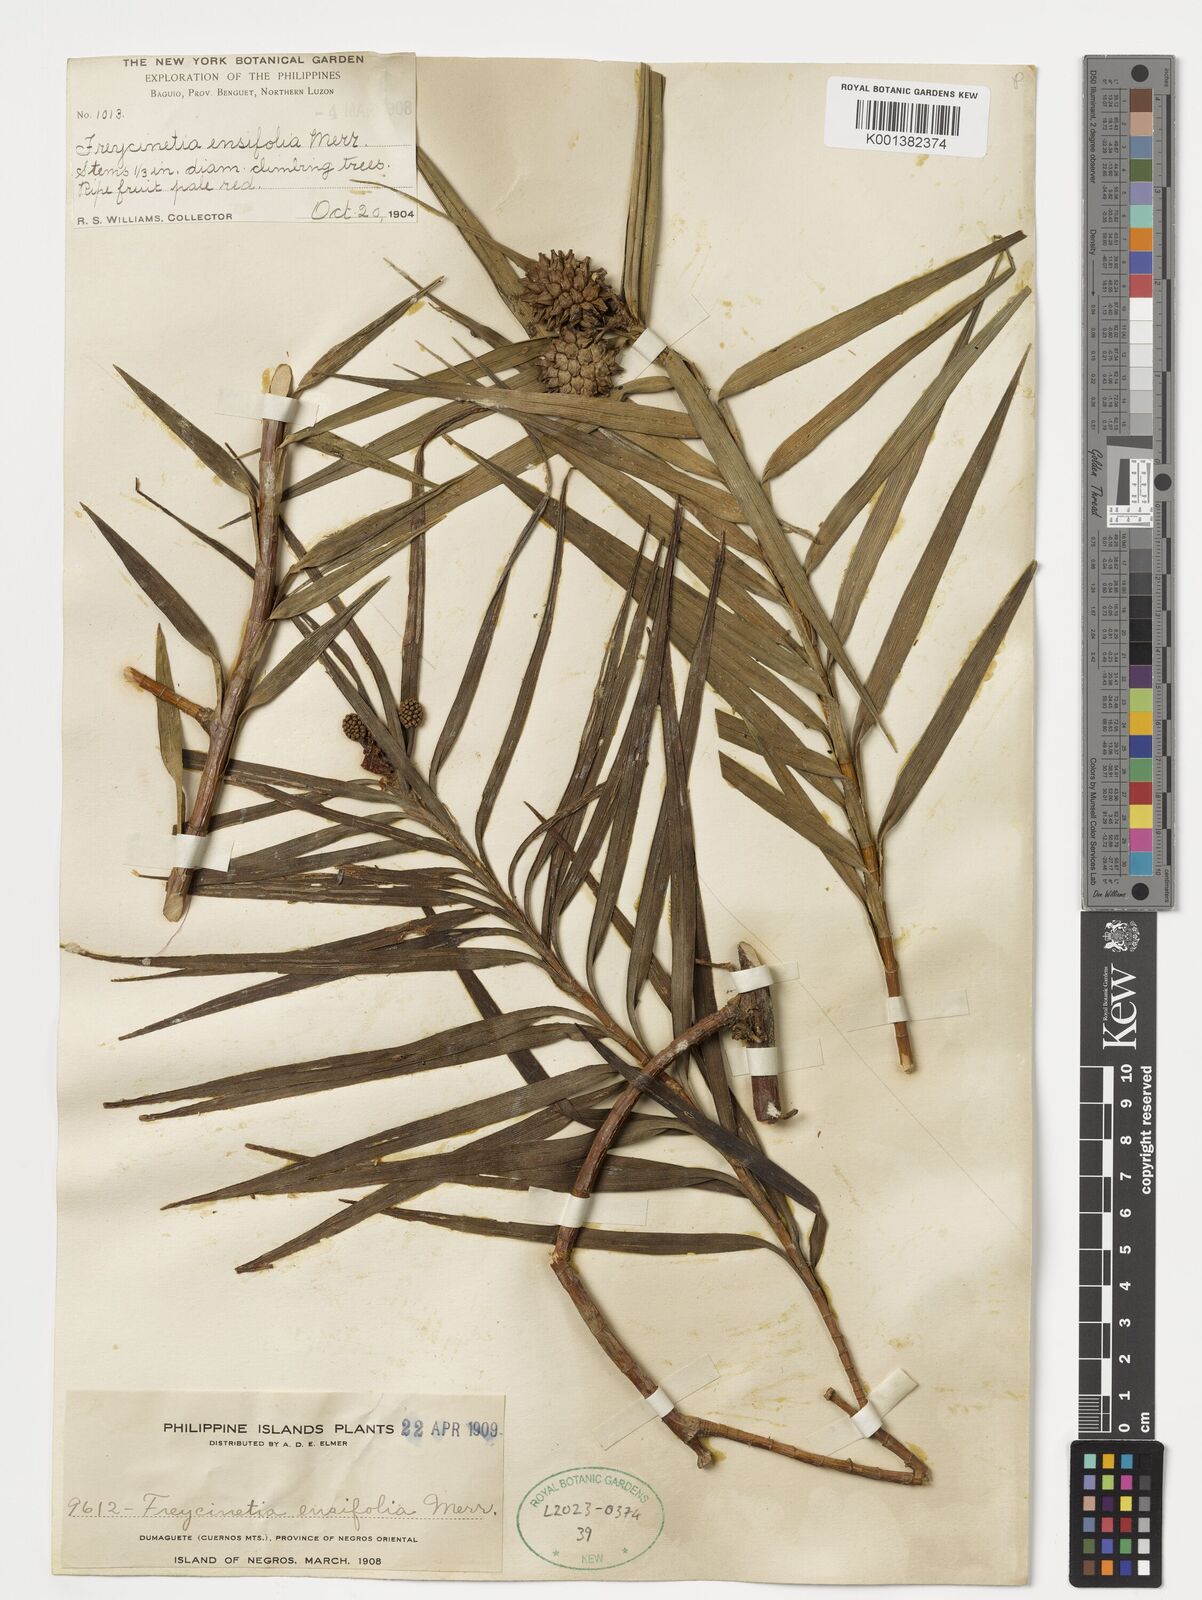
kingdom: Plantae
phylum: Tracheophyta
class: Liliopsida
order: Pandanales
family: Pandanaceae
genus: Freycinetia
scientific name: Freycinetia ensifolia
